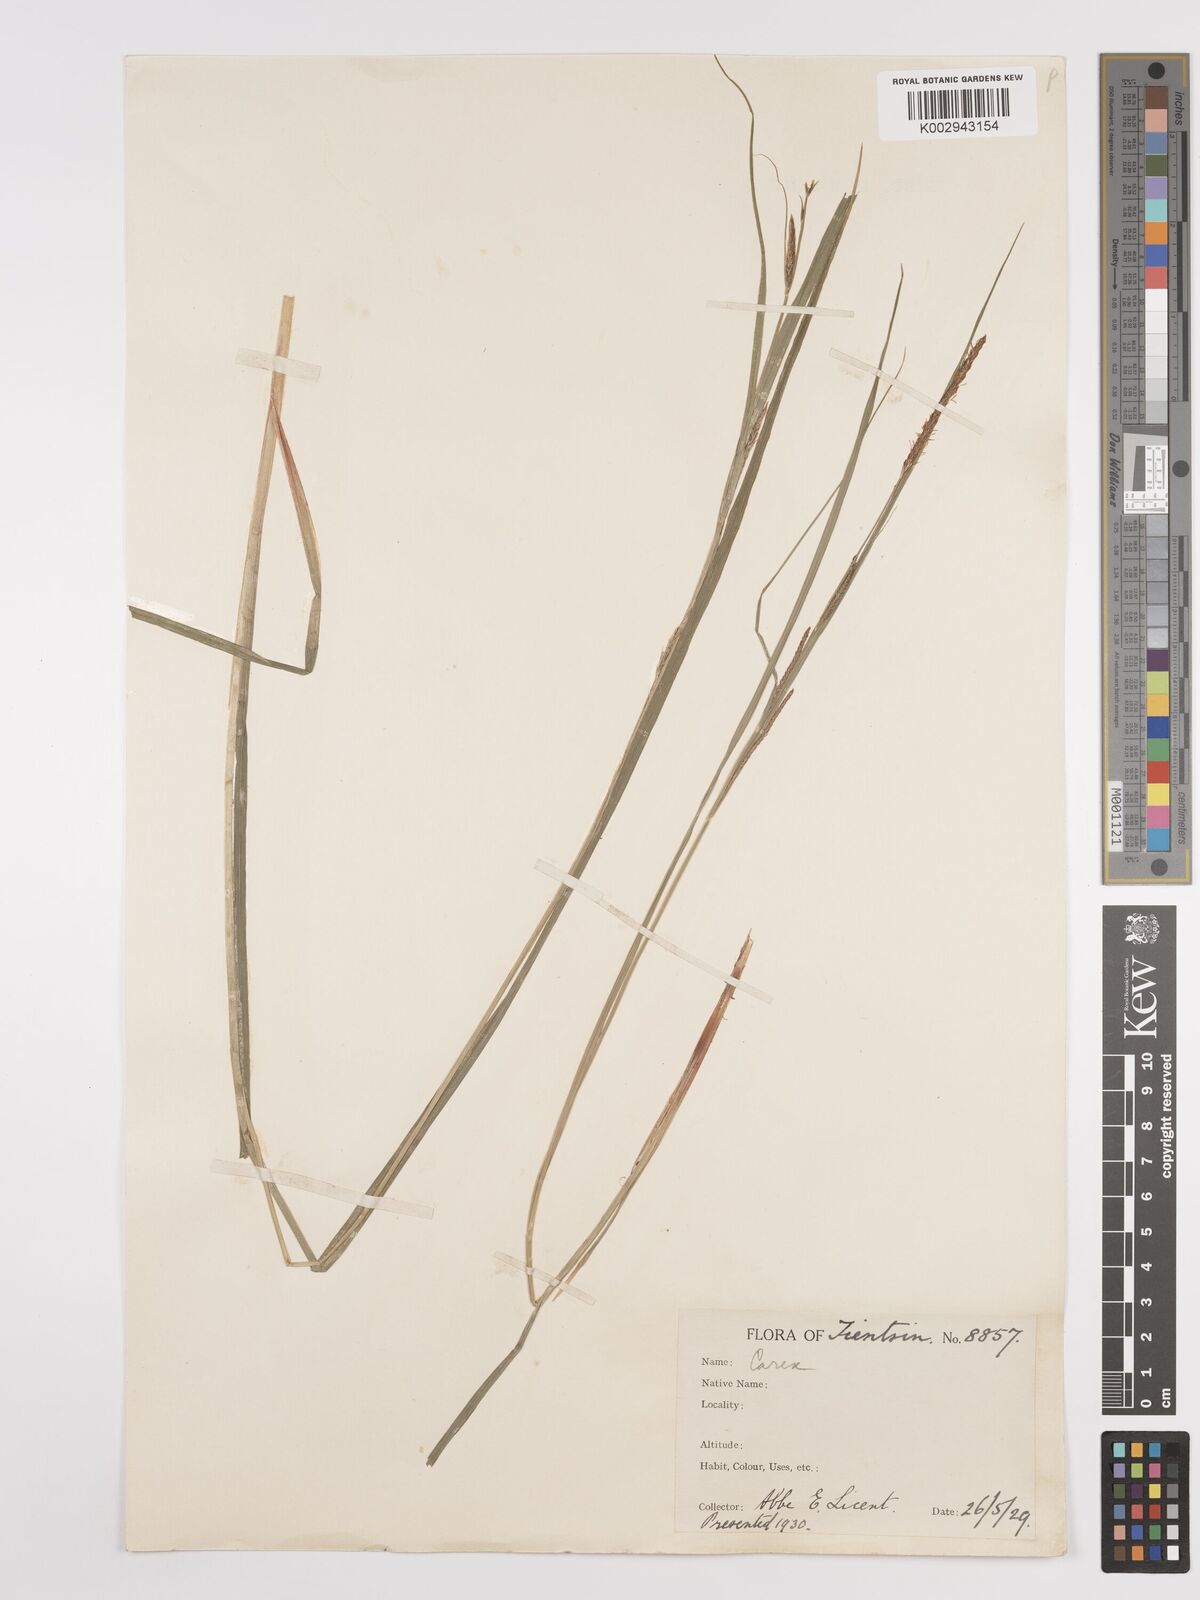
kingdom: Plantae
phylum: Tracheophyta
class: Liliopsida
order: Poales
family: Cyperaceae
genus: Carex
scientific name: Carex
